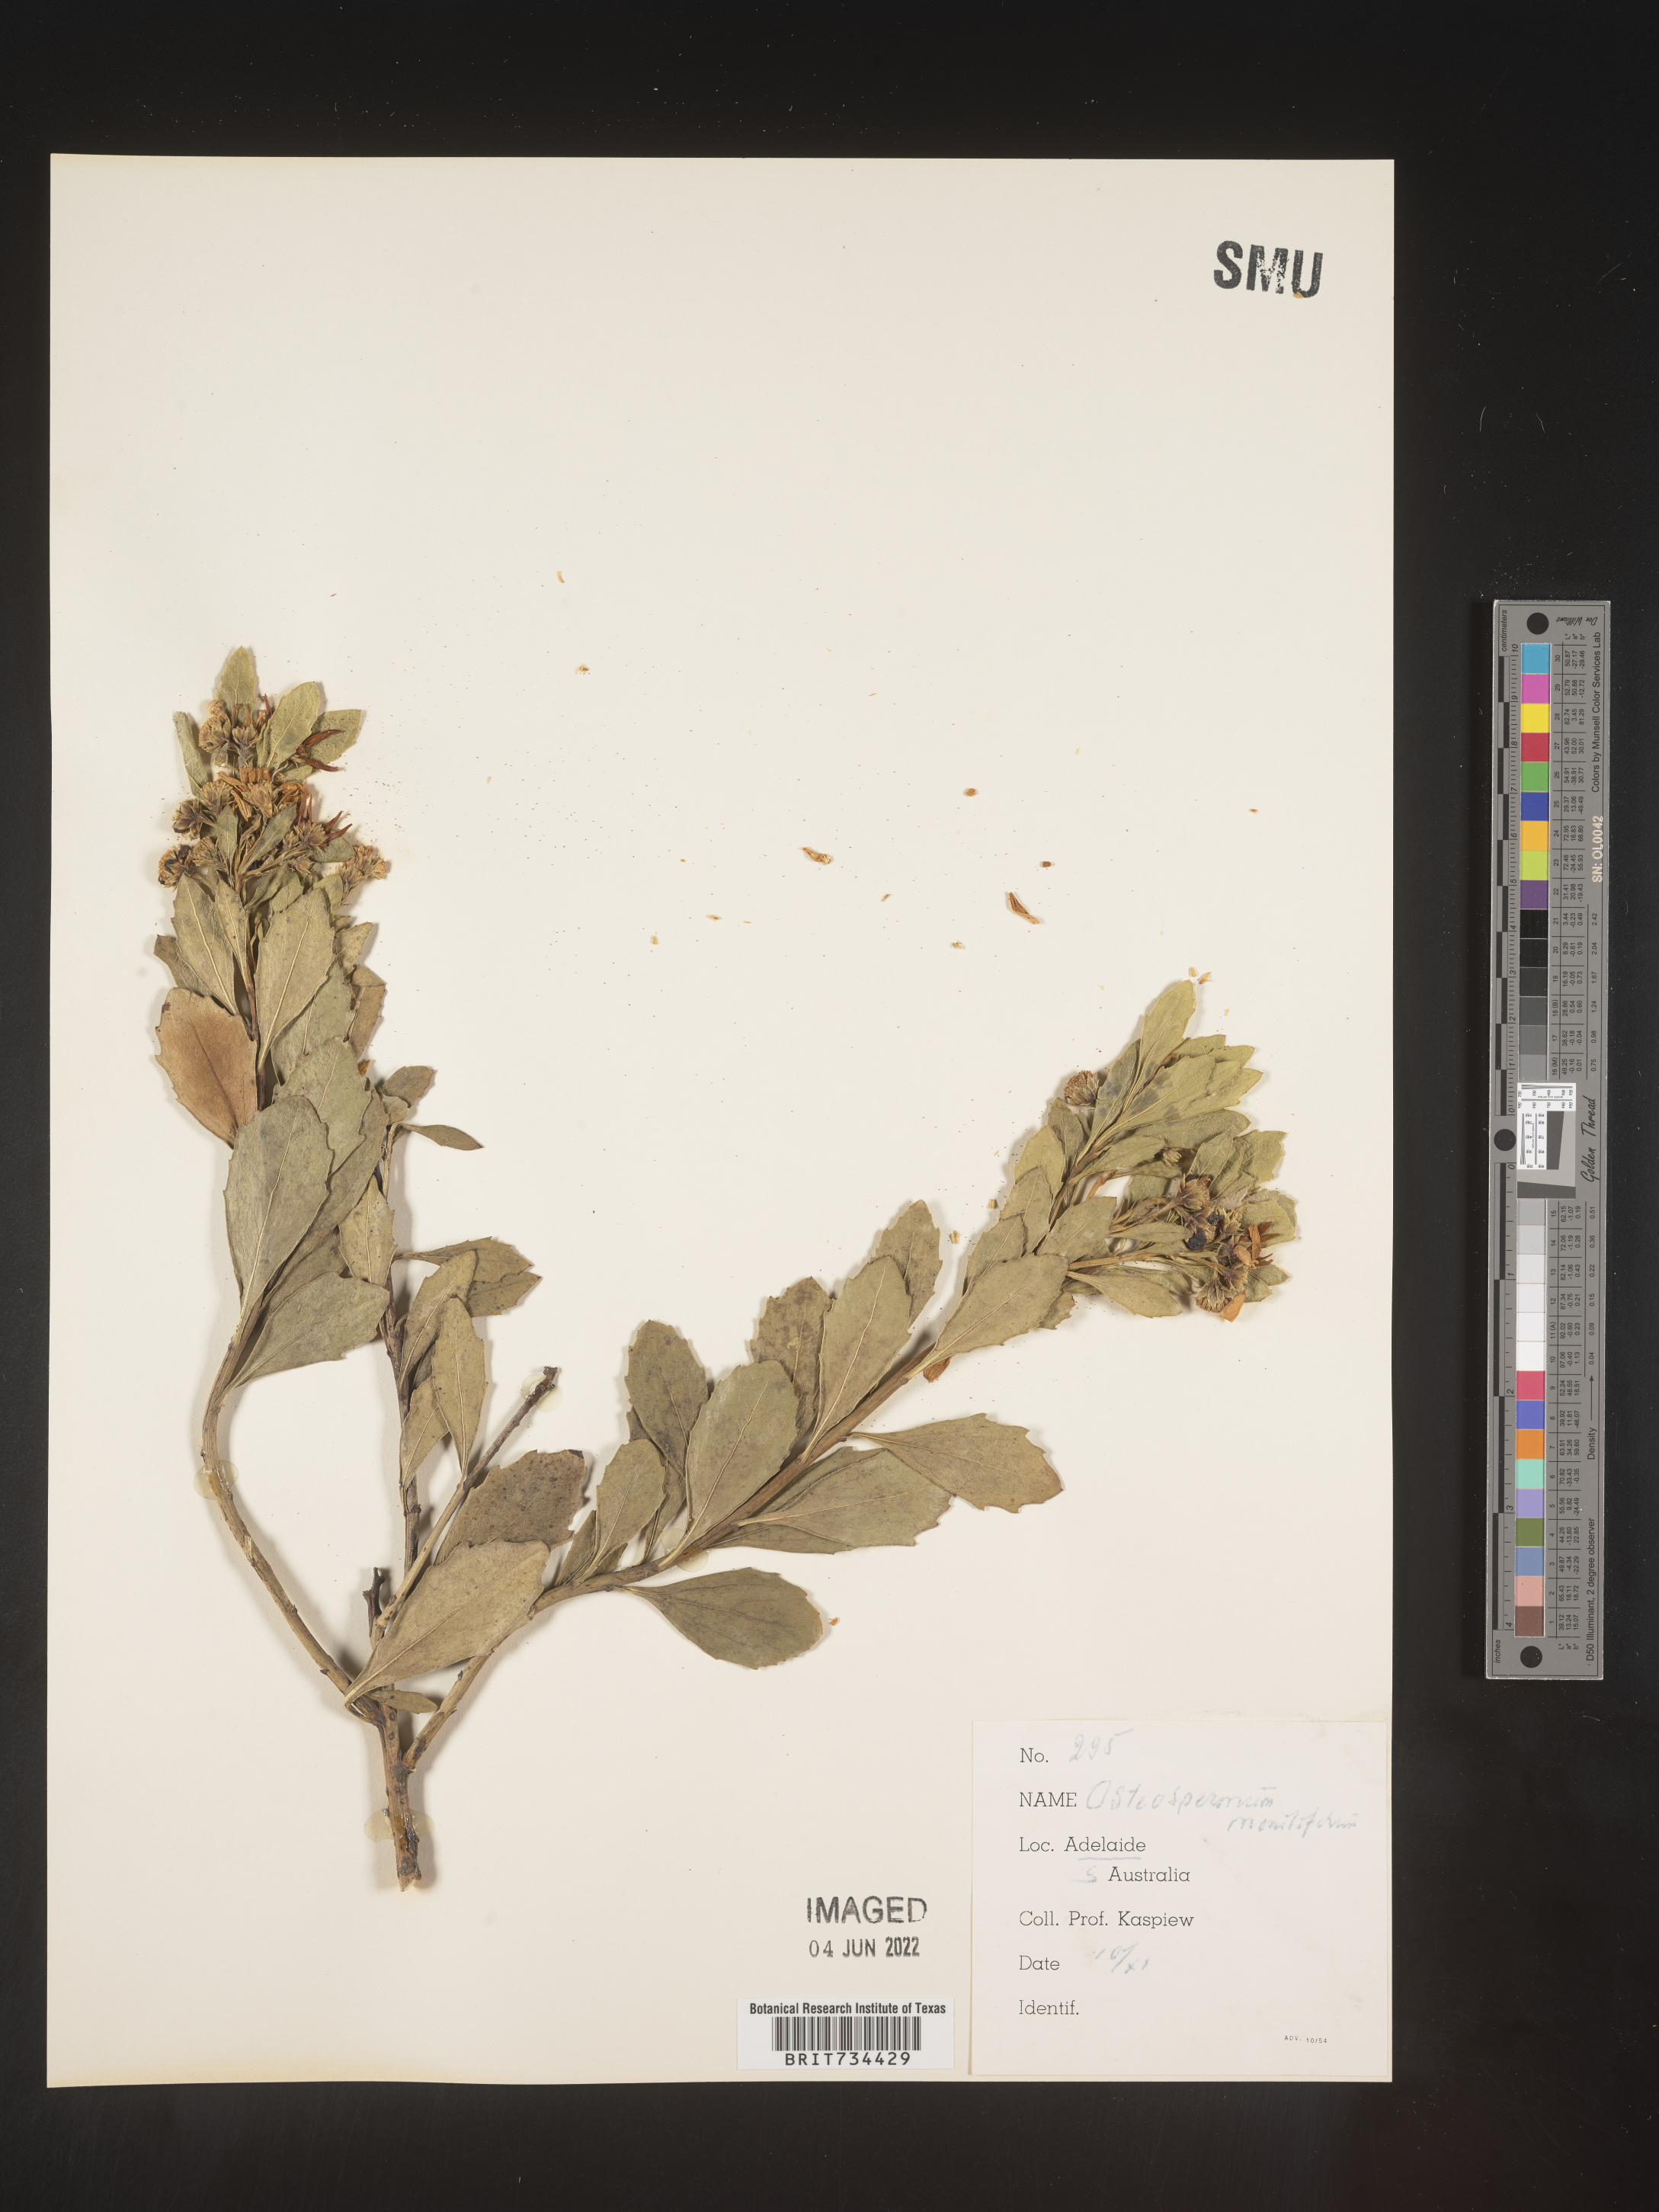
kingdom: Plantae
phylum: Tracheophyta
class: Magnoliopsida
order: Asterales
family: Asteraceae
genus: Osteospermum
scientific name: Osteospermum
